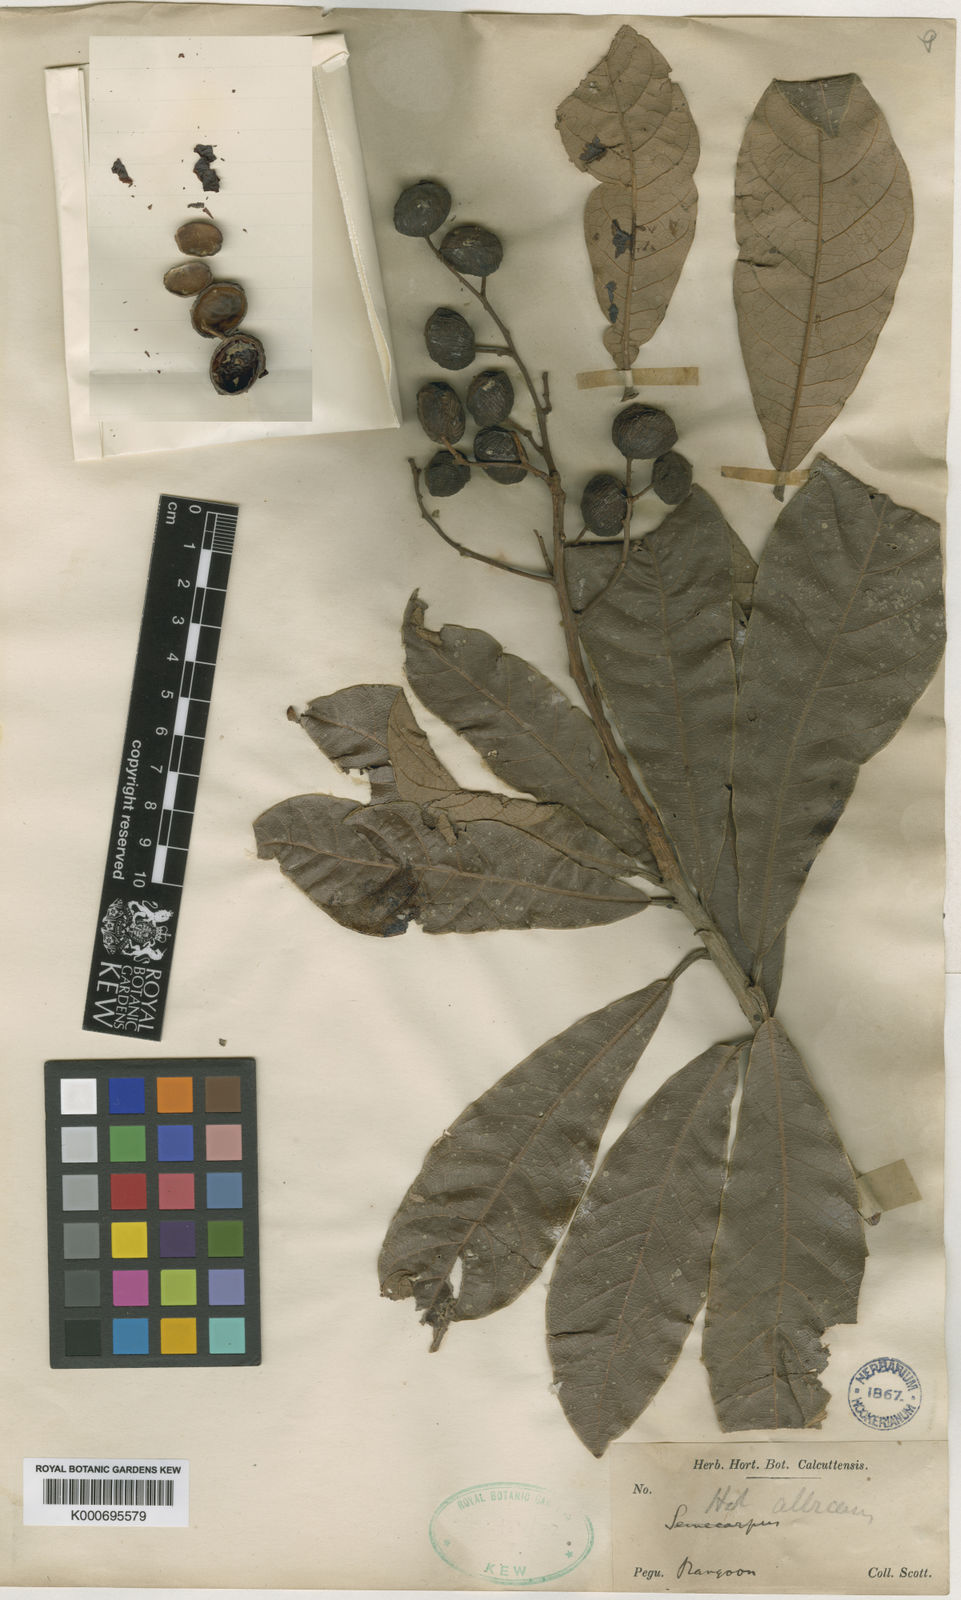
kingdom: Plantae
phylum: Tracheophyta
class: Magnoliopsida
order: Sapindales
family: Anacardiaceae
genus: Holigarna
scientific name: Holigarna albicans
